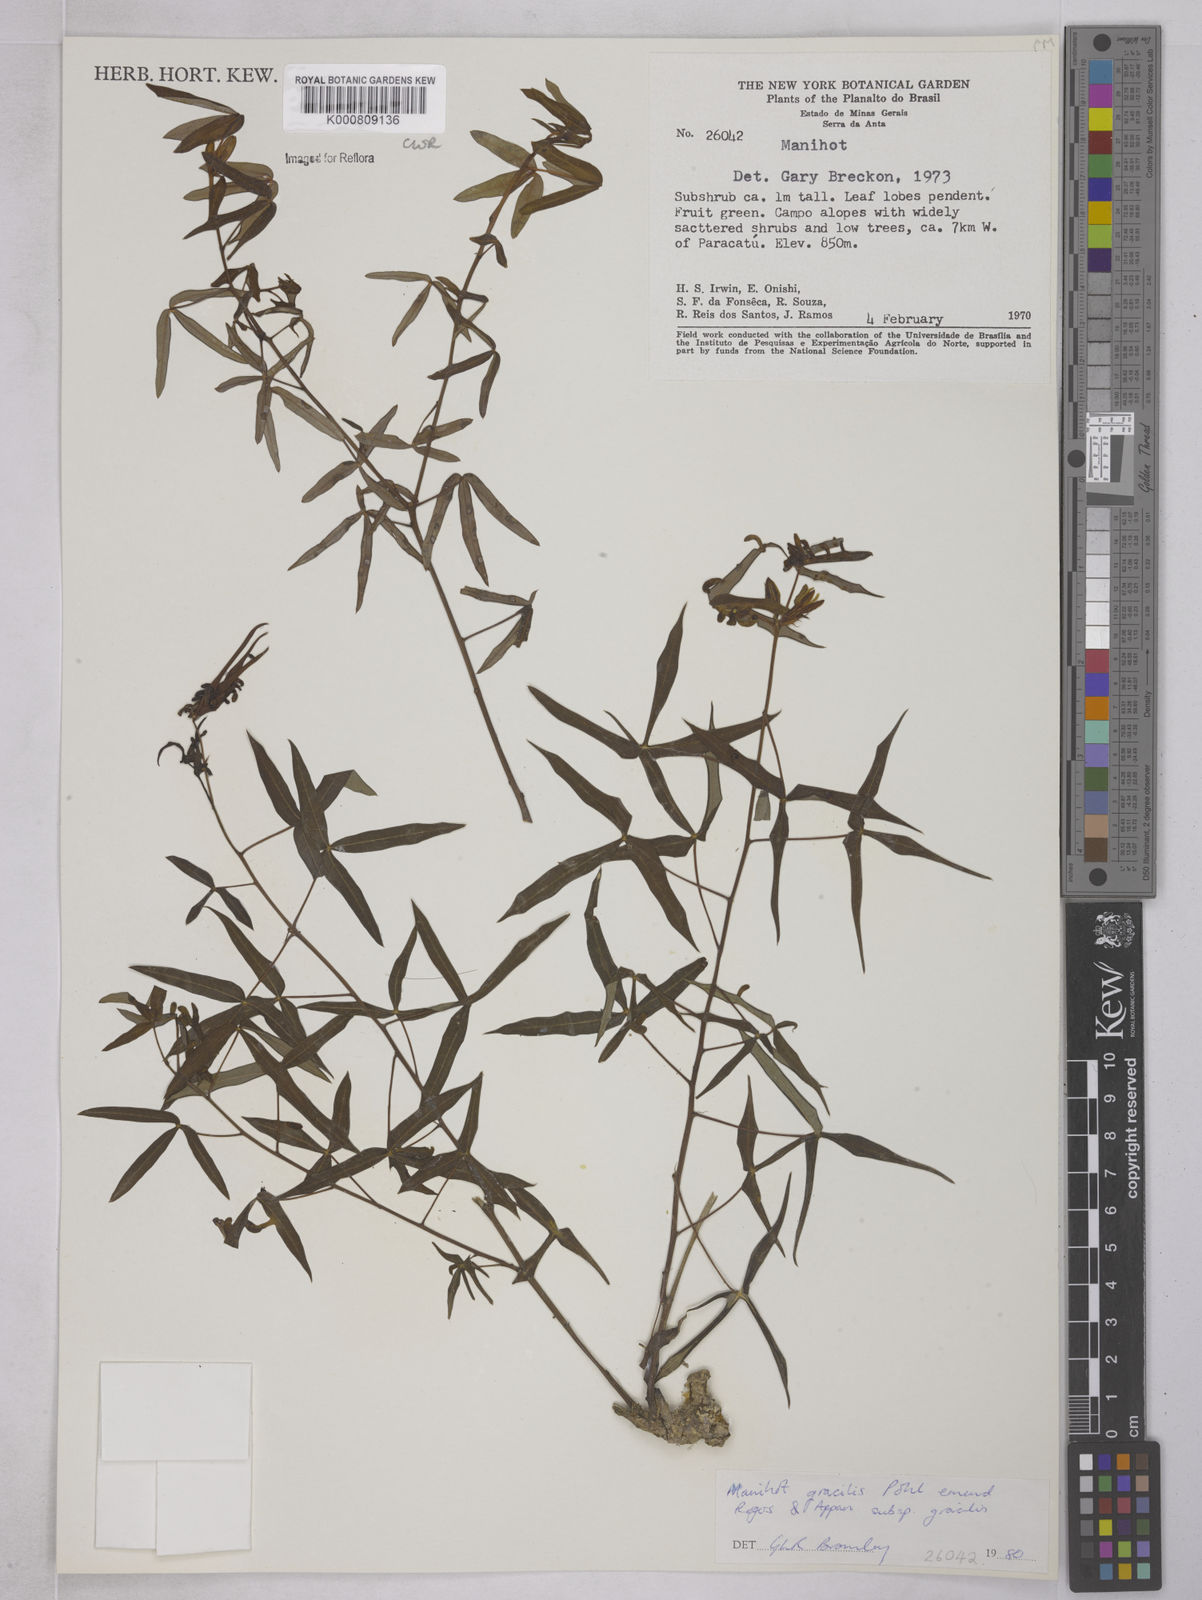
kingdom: Plantae
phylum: Tracheophyta
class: Magnoliopsida
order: Malpighiales
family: Euphorbiaceae
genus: Manihot
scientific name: Manihot gracilis
